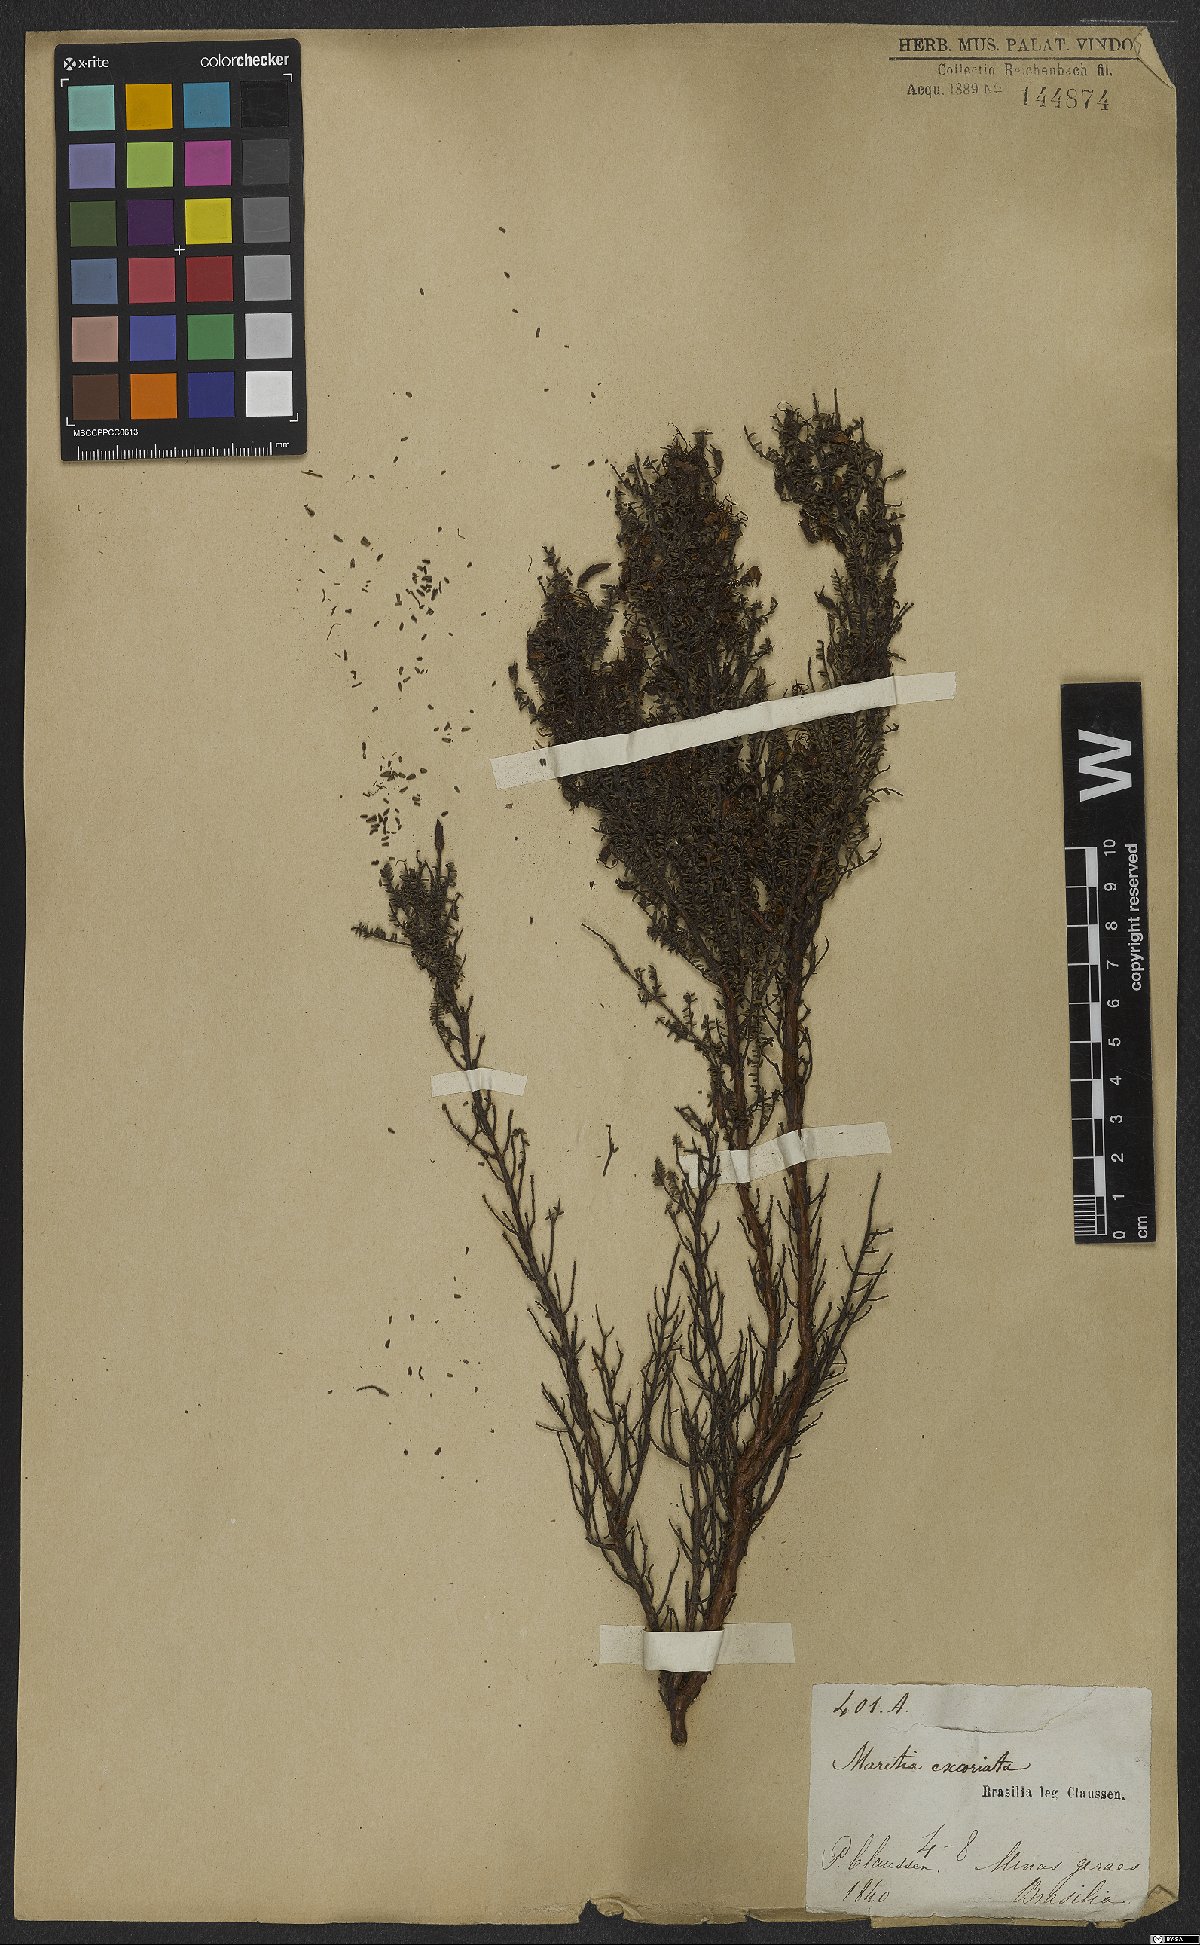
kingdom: Plantae
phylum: Tracheophyta
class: Magnoliopsida
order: Myrtales
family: Melastomataceae
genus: Fritzschia
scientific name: Fritzschia sertularia
